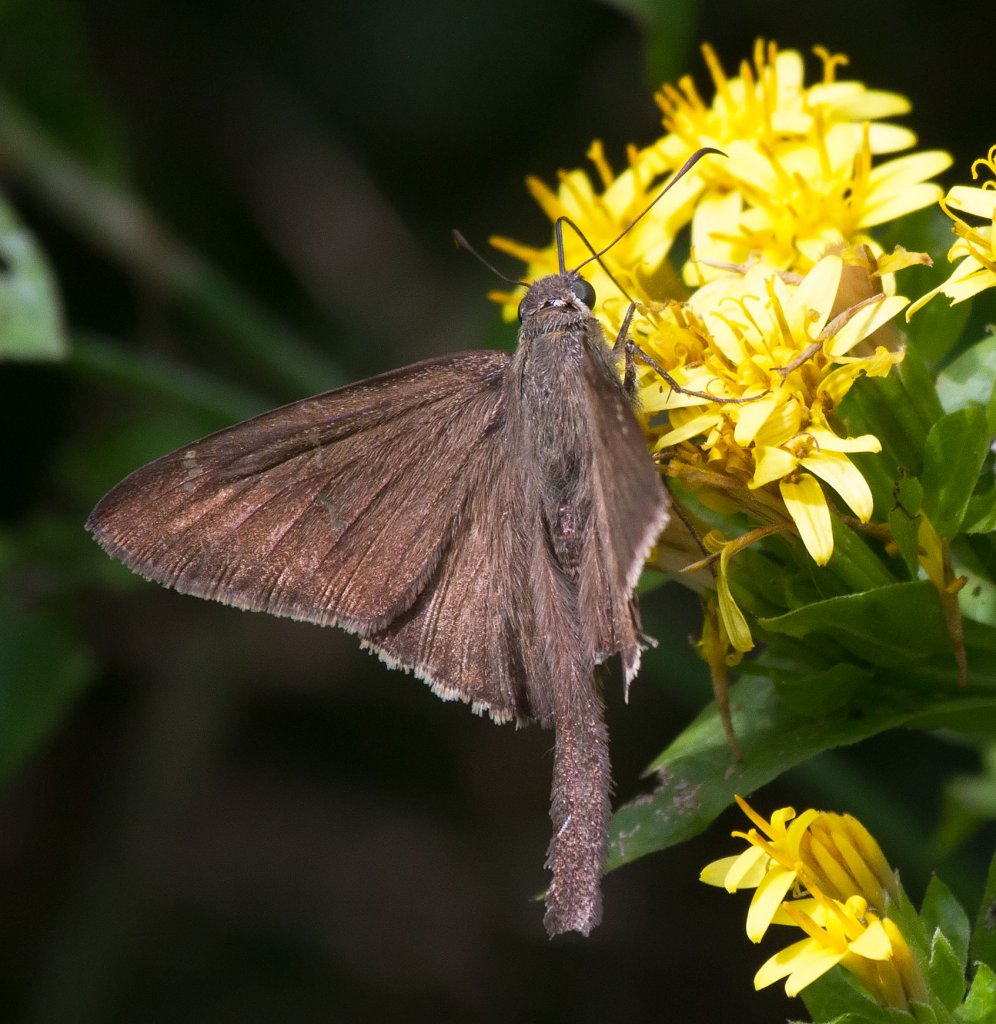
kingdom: Animalia
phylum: Arthropoda
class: Insecta
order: Lepidoptera
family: Hesperiidae
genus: Urbanus
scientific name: Urbanus procne
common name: Brown Longtail
